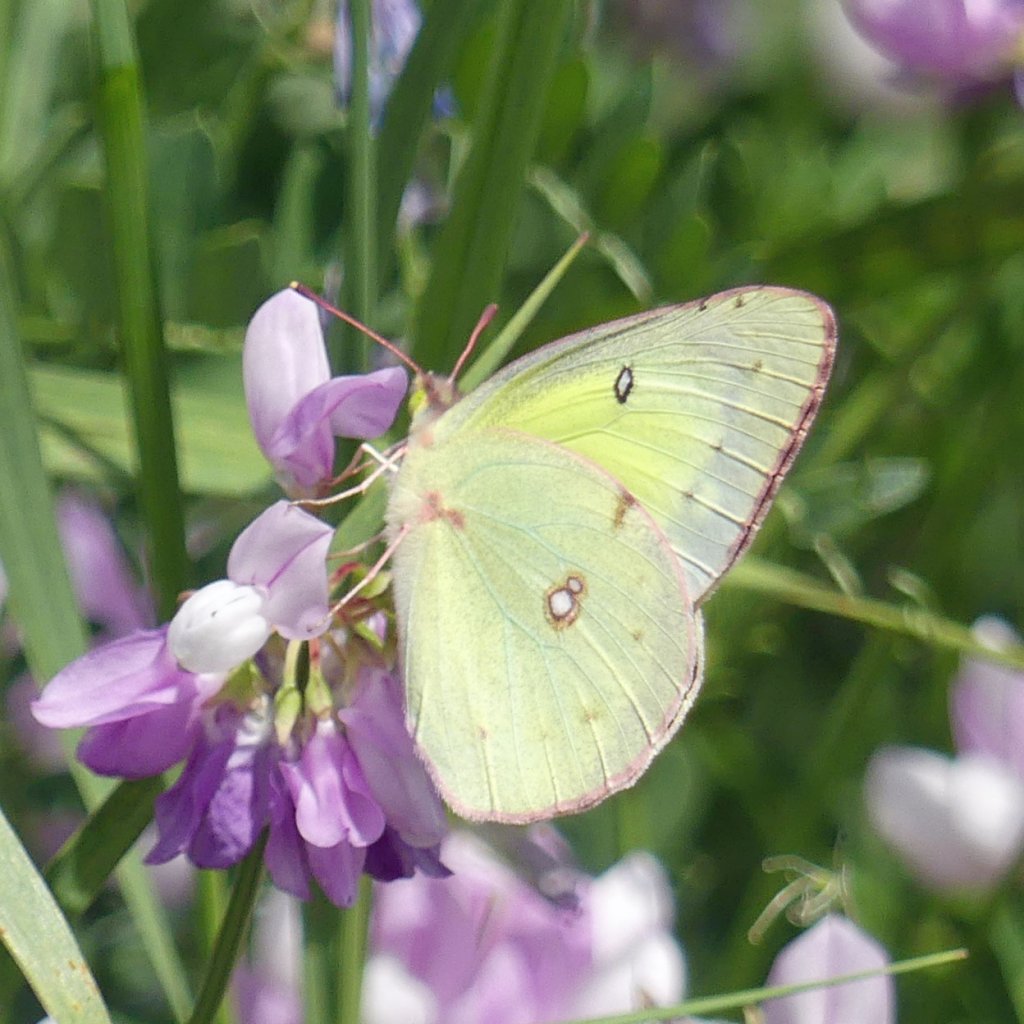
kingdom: Animalia
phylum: Arthropoda
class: Insecta
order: Lepidoptera
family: Pieridae
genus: Colias
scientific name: Colias philodice
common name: Clouded Sulphur
